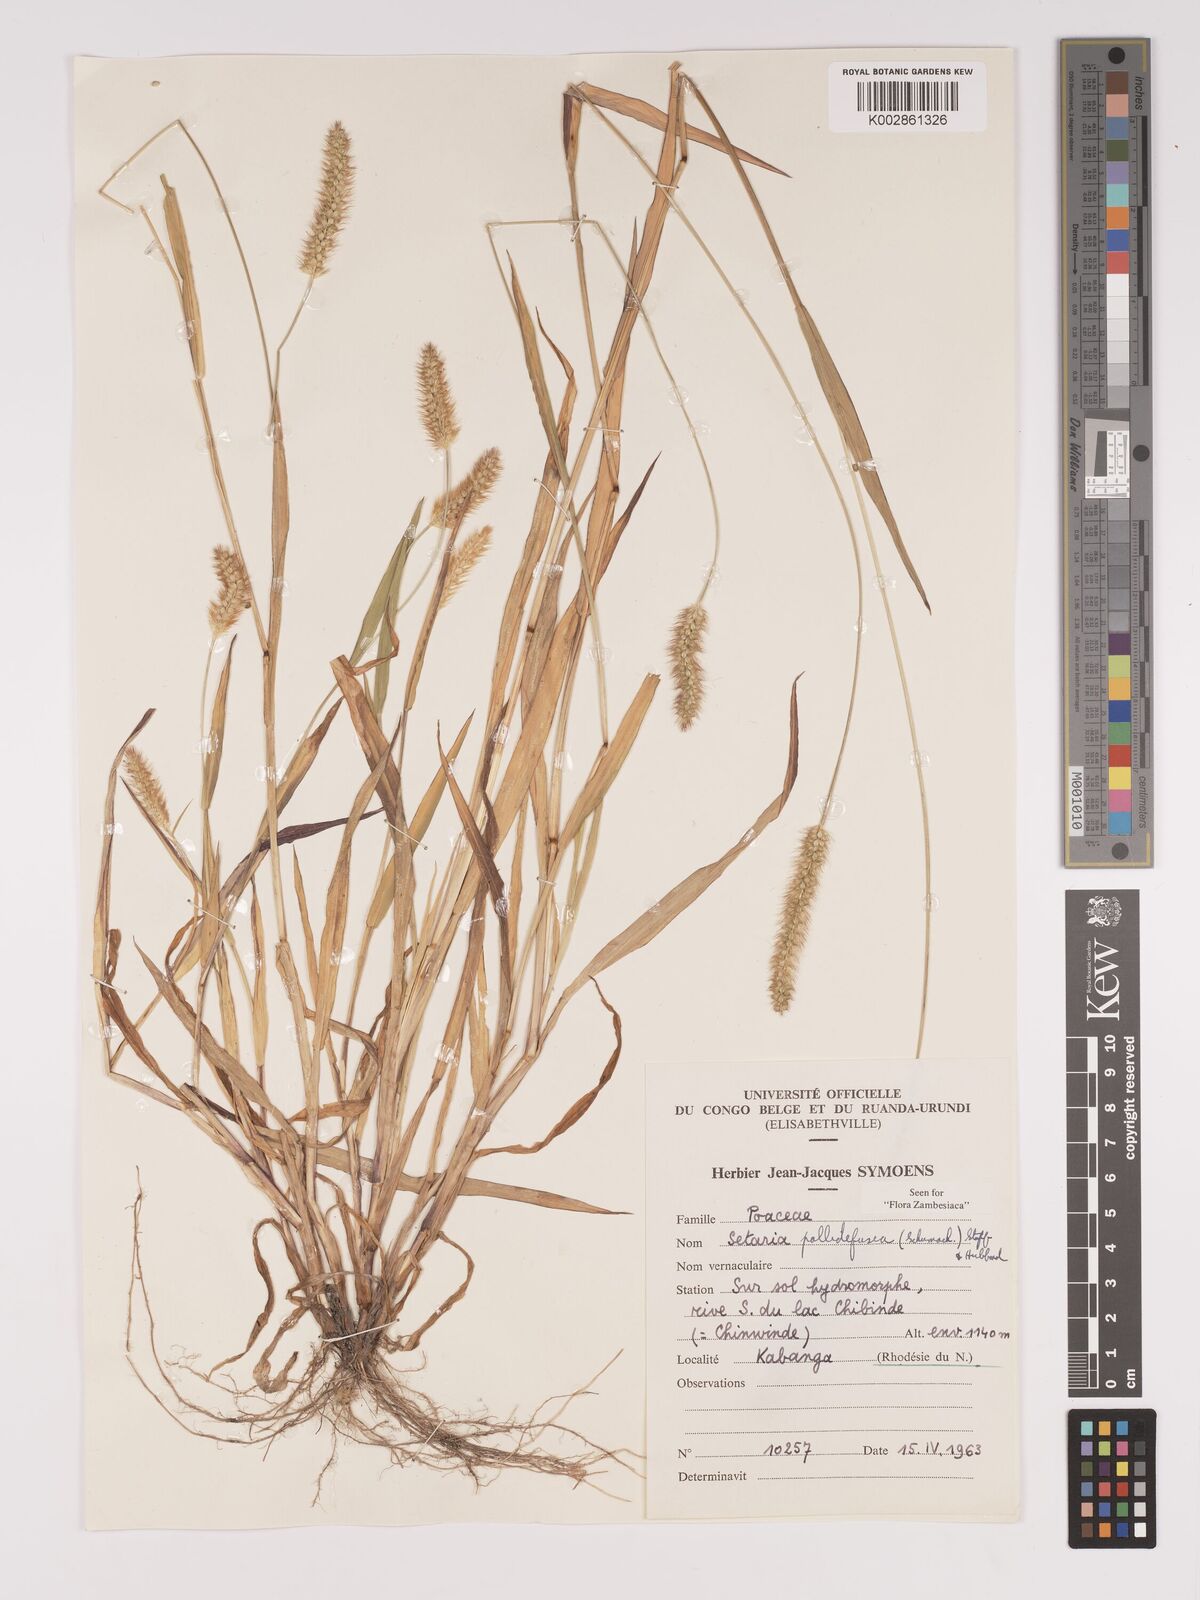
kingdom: Plantae
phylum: Tracheophyta
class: Liliopsida
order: Poales
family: Poaceae
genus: Setaria
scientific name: Setaria pumila
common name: Yellow bristle-grass
